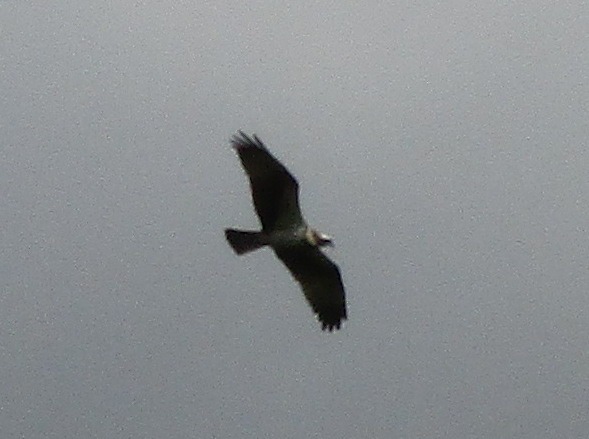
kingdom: Animalia
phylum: Chordata
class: Aves
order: Accipitriformes
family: Pandionidae
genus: Pandion
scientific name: Pandion haliaetus
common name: Fiskeørn
